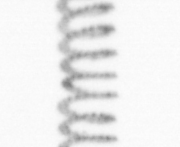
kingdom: Chromista
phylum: Ochrophyta
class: Bacillariophyceae
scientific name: Bacillariophyceae
